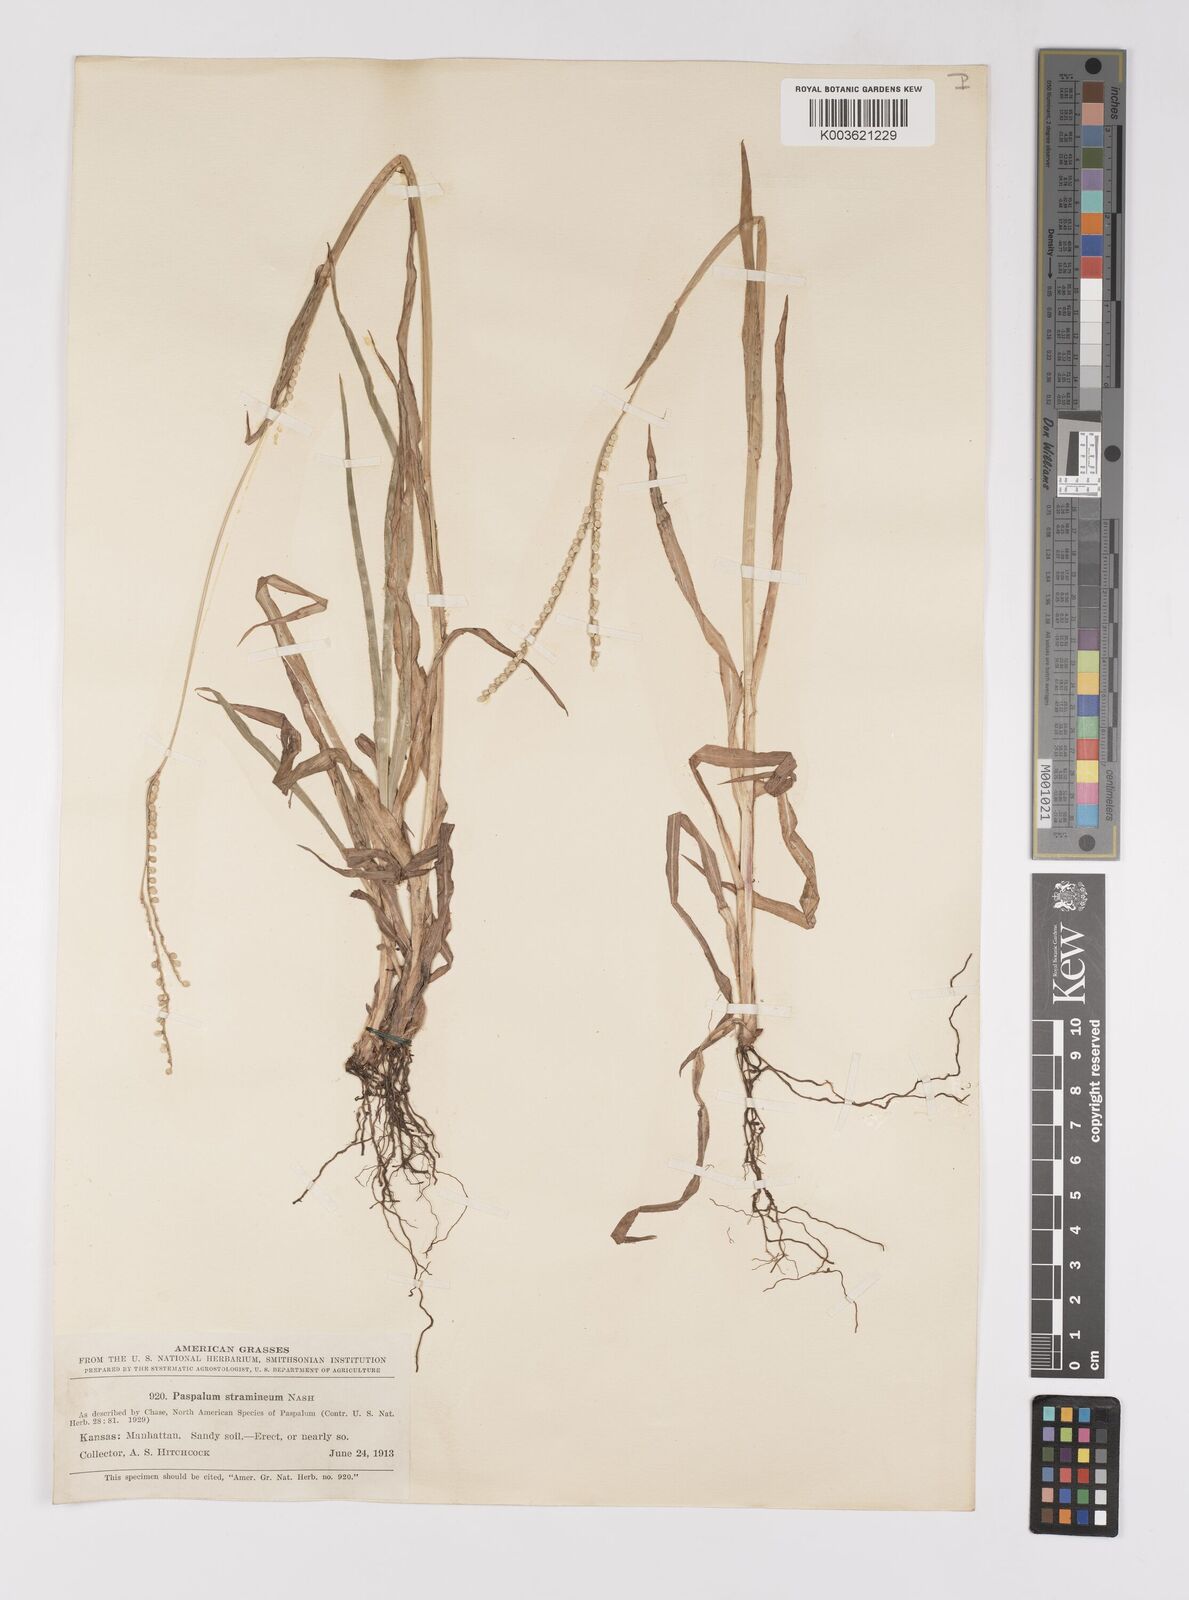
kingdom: Plantae
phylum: Tracheophyta
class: Liliopsida
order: Poales
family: Poaceae
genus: Paspalum
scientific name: Paspalum setaceum
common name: Slender paspalum
